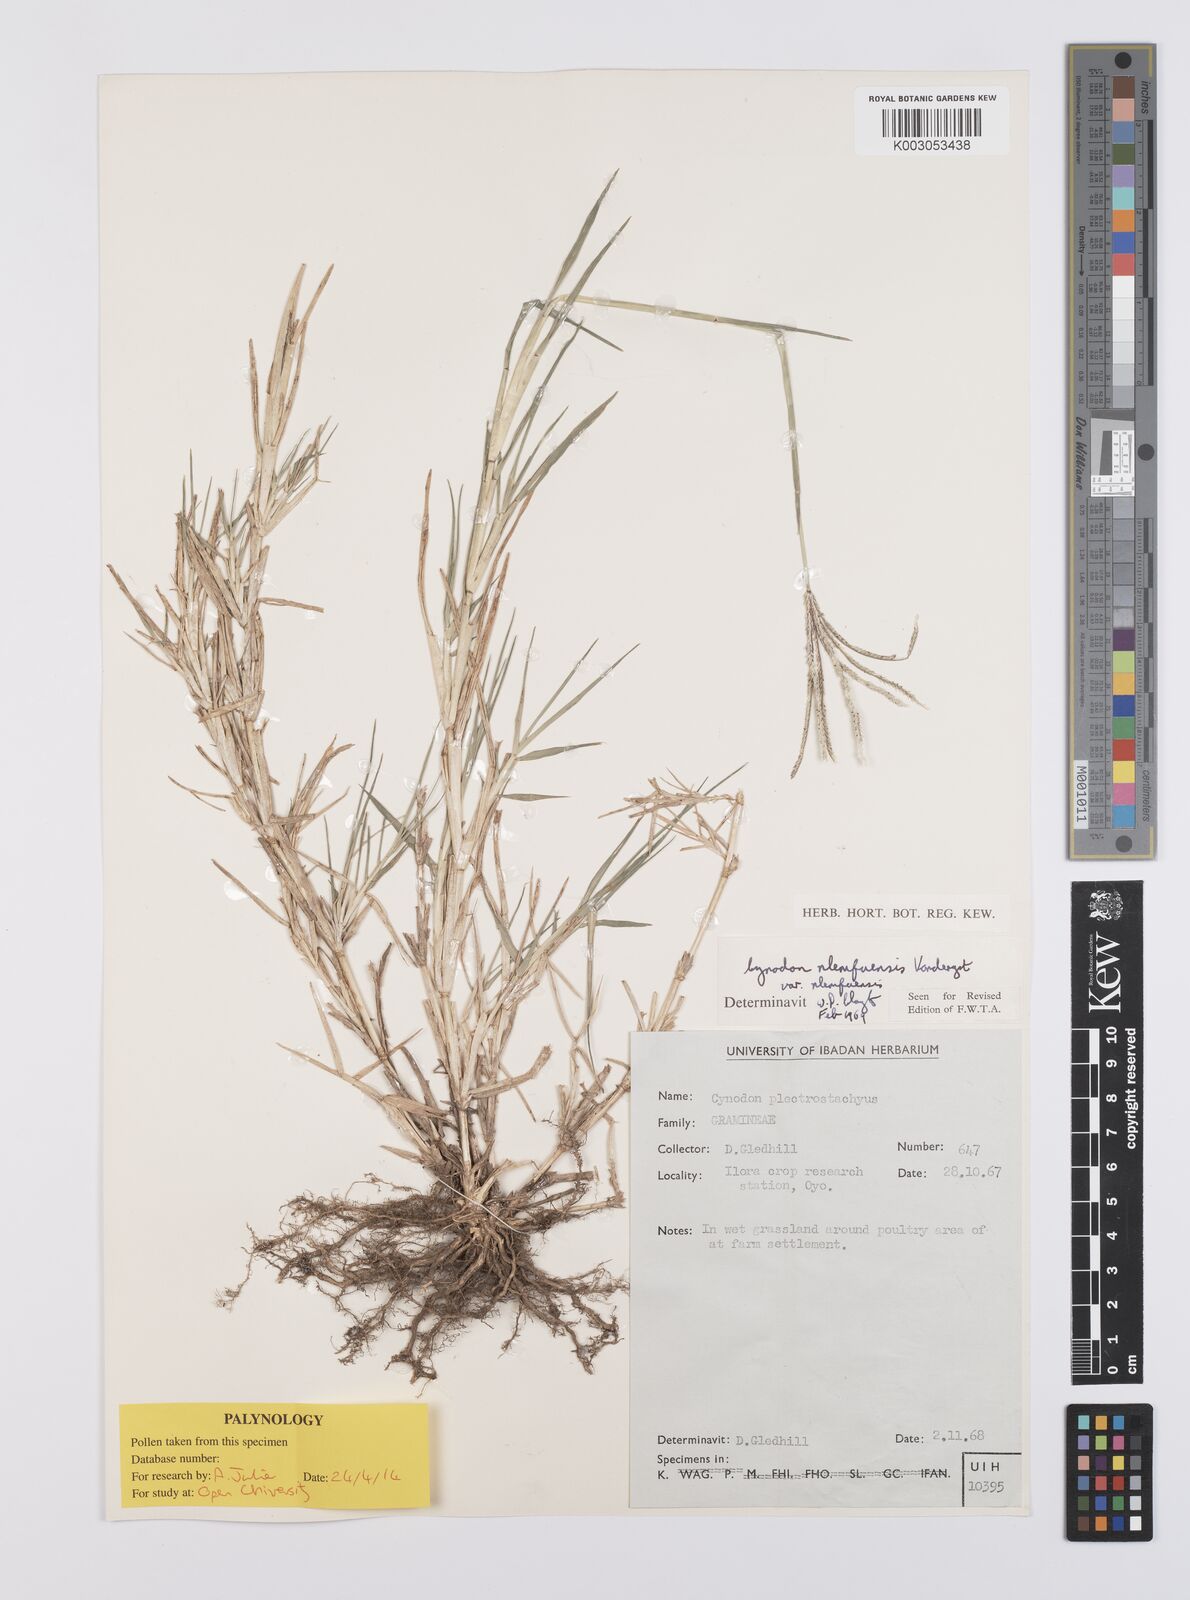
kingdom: Plantae
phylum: Tracheophyta
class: Liliopsida
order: Poales
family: Poaceae
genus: Cynodon
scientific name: Cynodon nlemfuensis
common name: African bermudagrass
